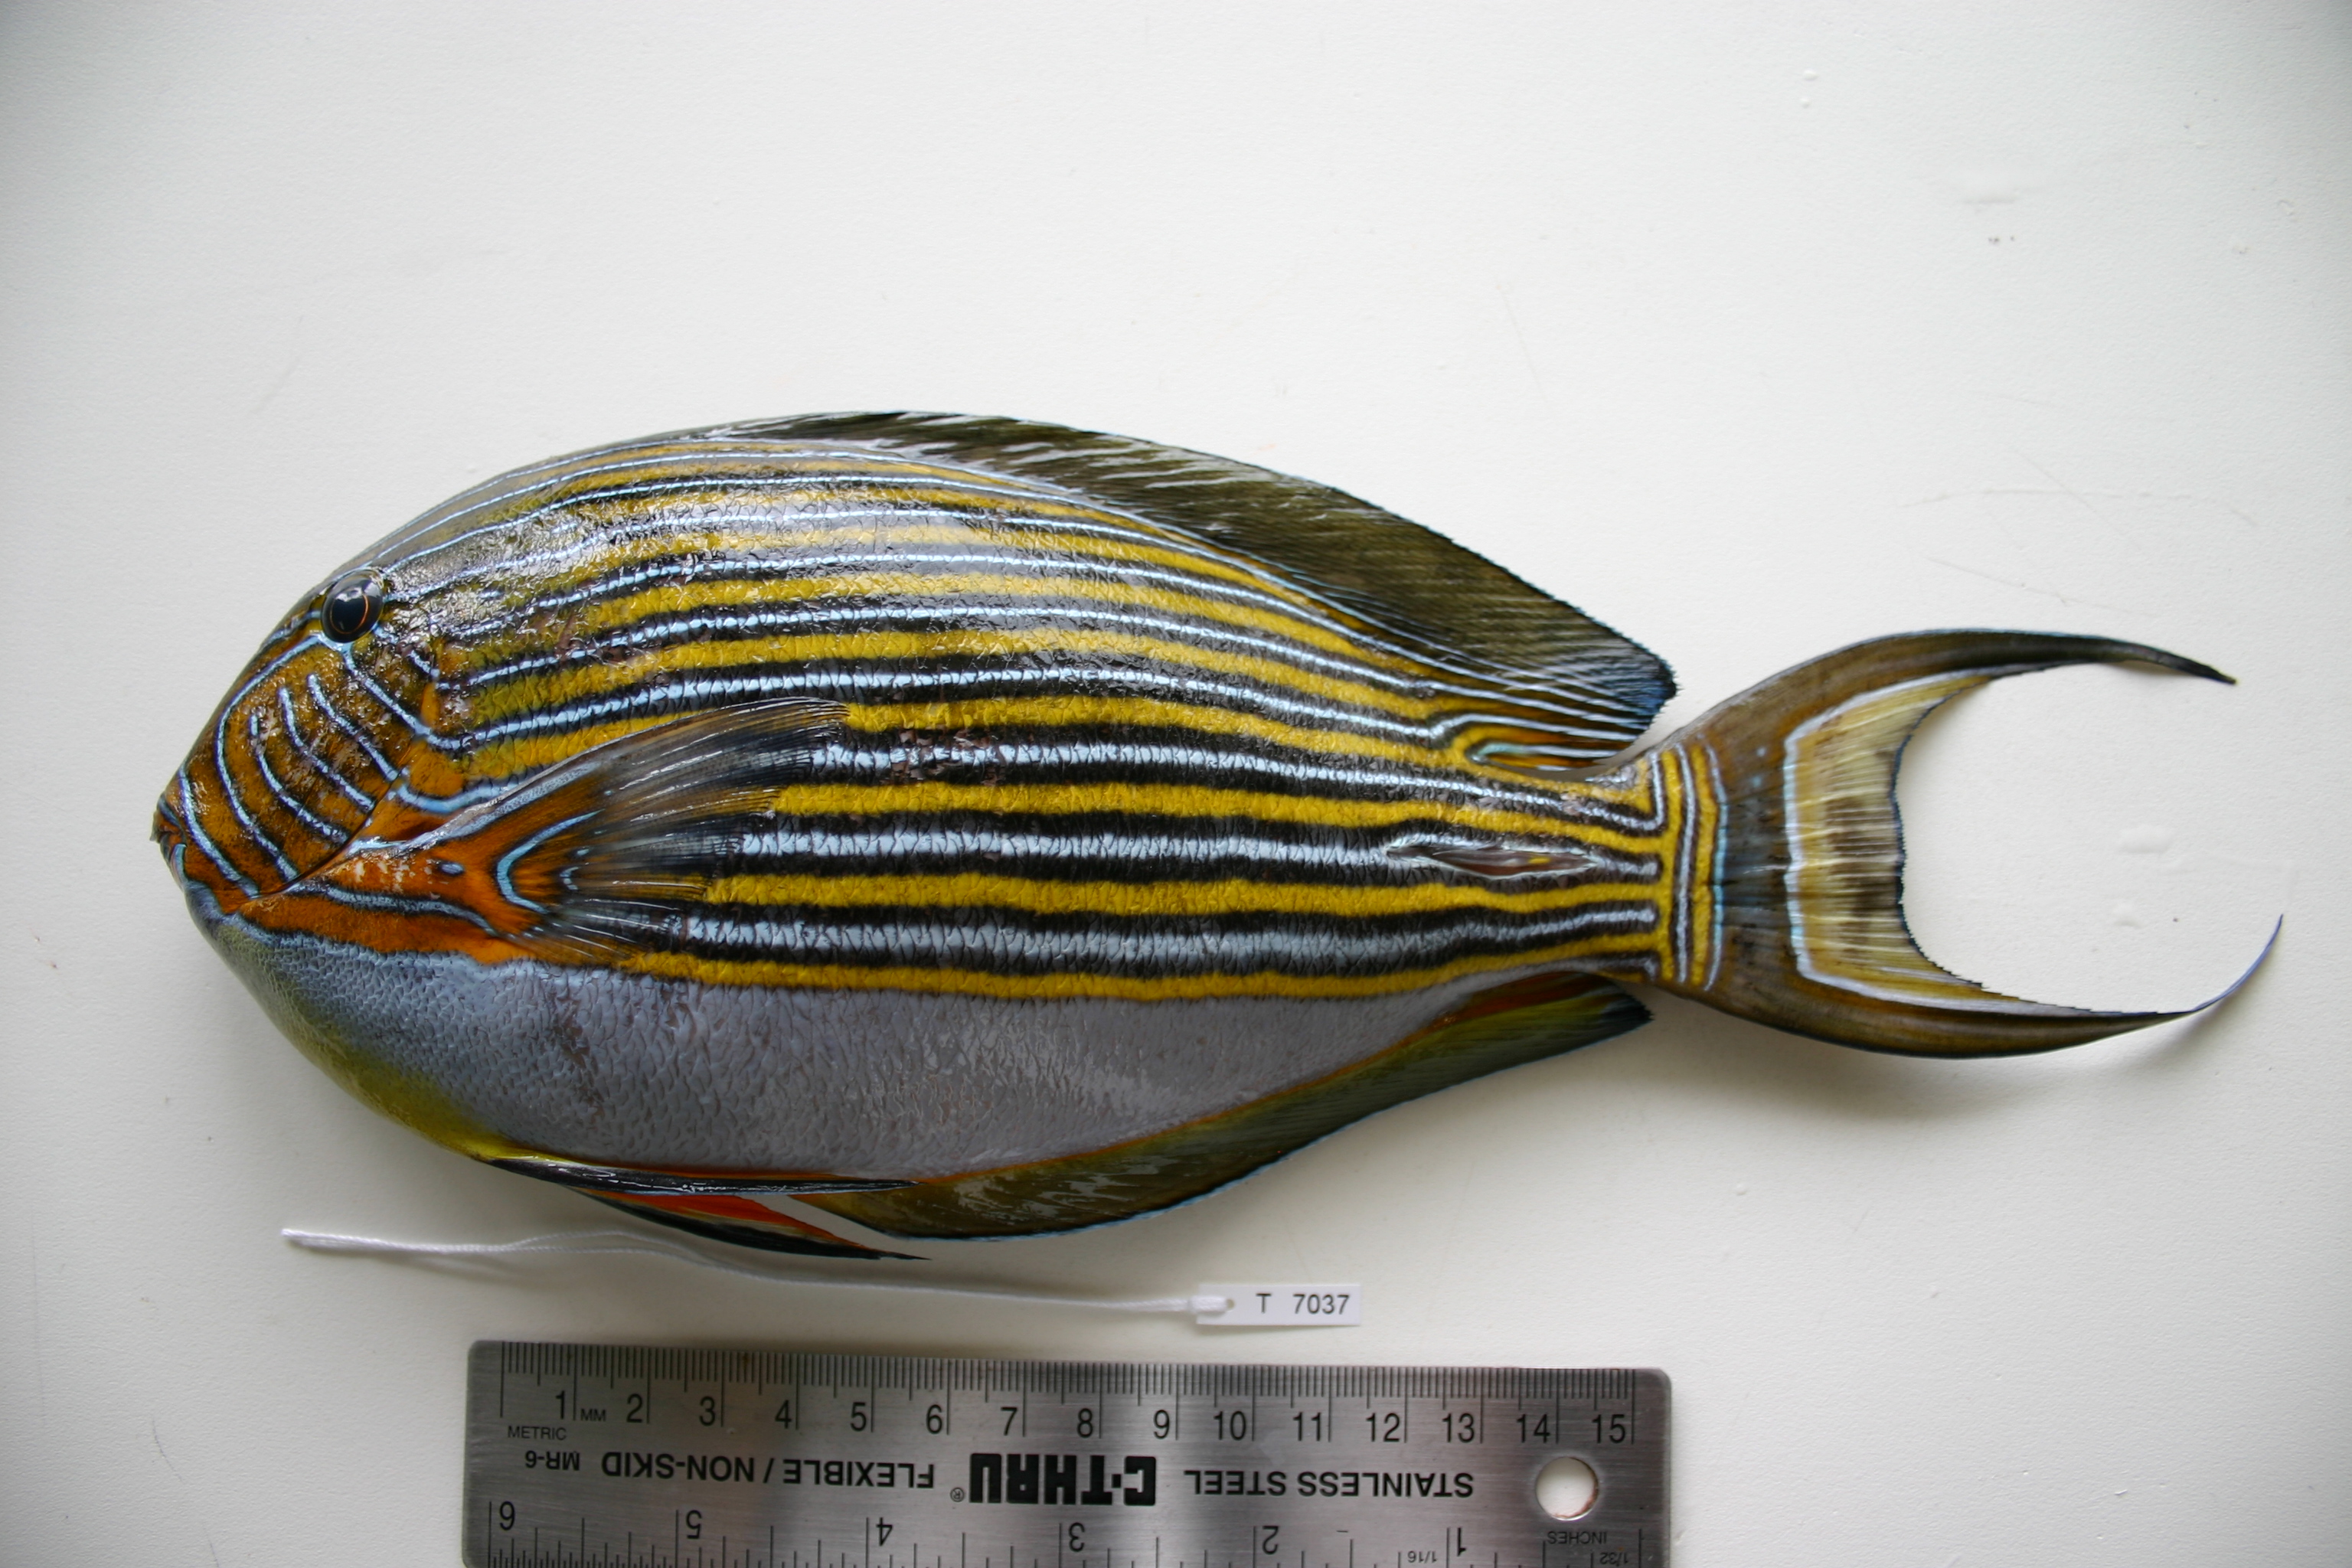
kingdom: Animalia
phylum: Chordata
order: Perciformes
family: Acanthuridae
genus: Acanthurus
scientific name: Acanthurus lineatus
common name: Striped surgeonfish
